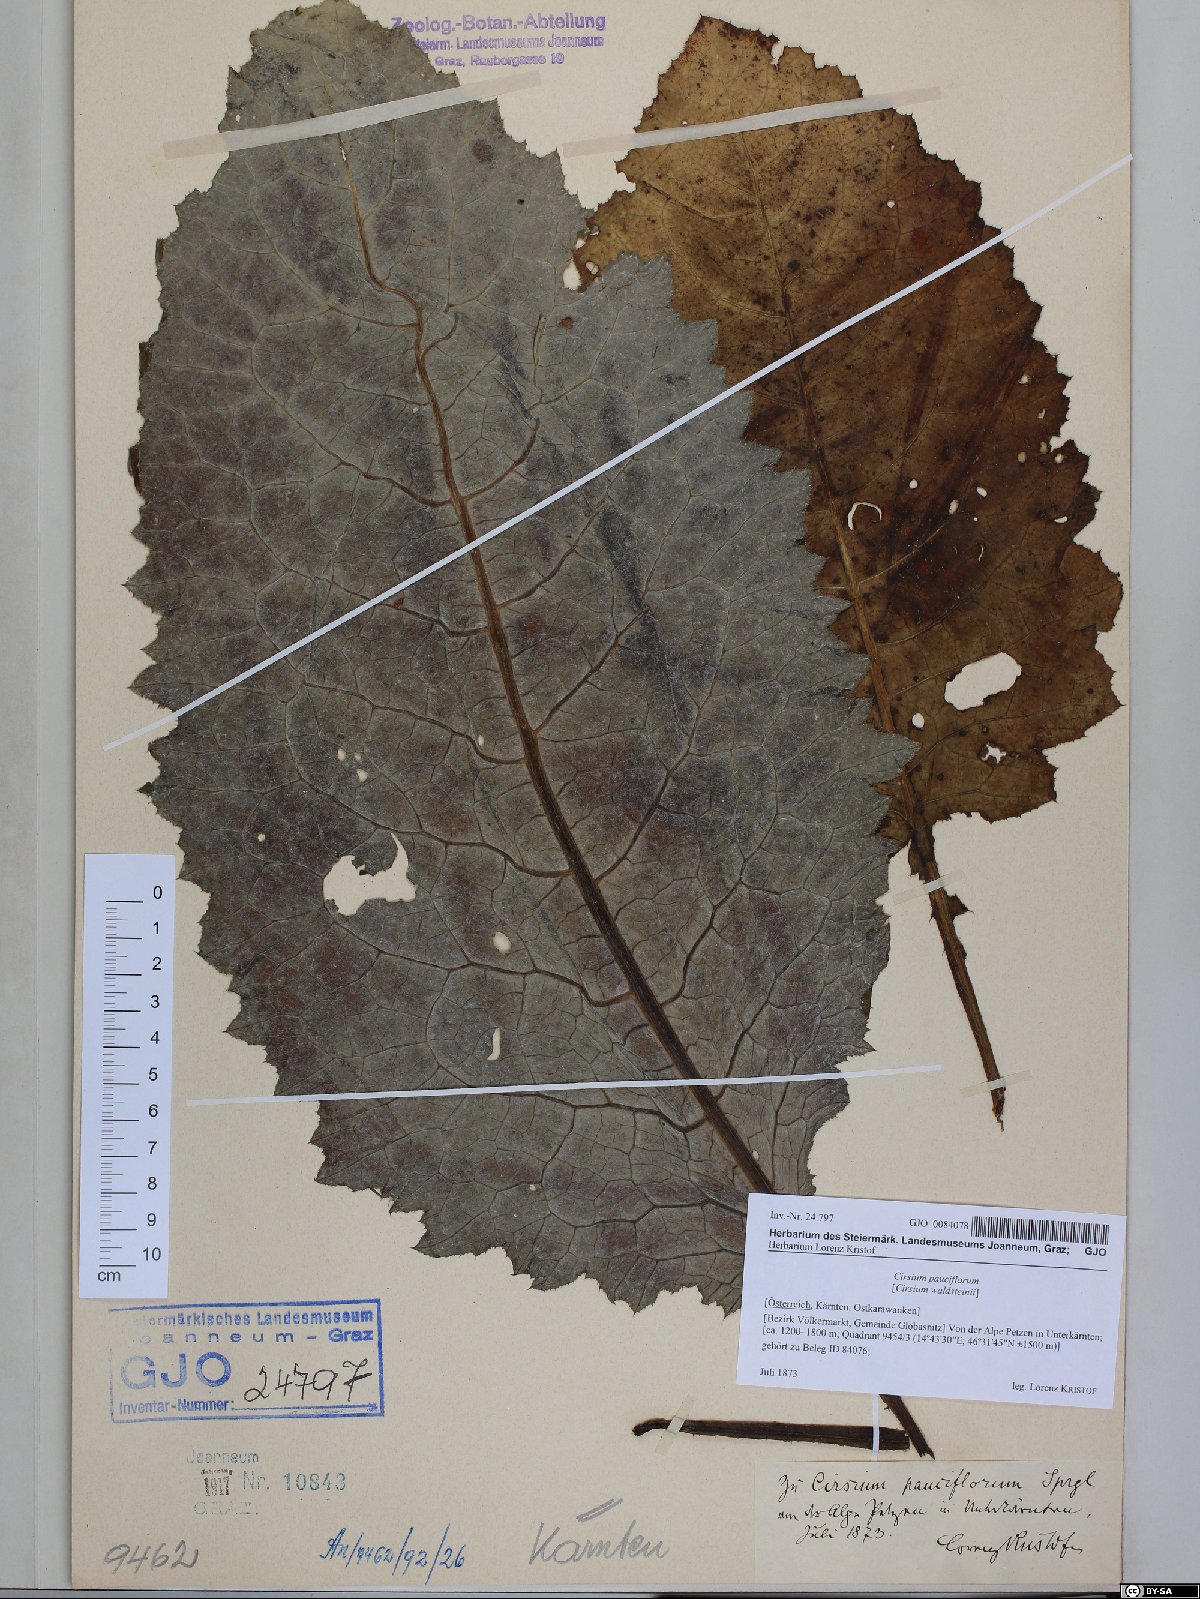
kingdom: Plantae
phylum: Tracheophyta
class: Magnoliopsida
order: Asterales
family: Asteraceae
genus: Cirsium
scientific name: Cirsium greimleri
